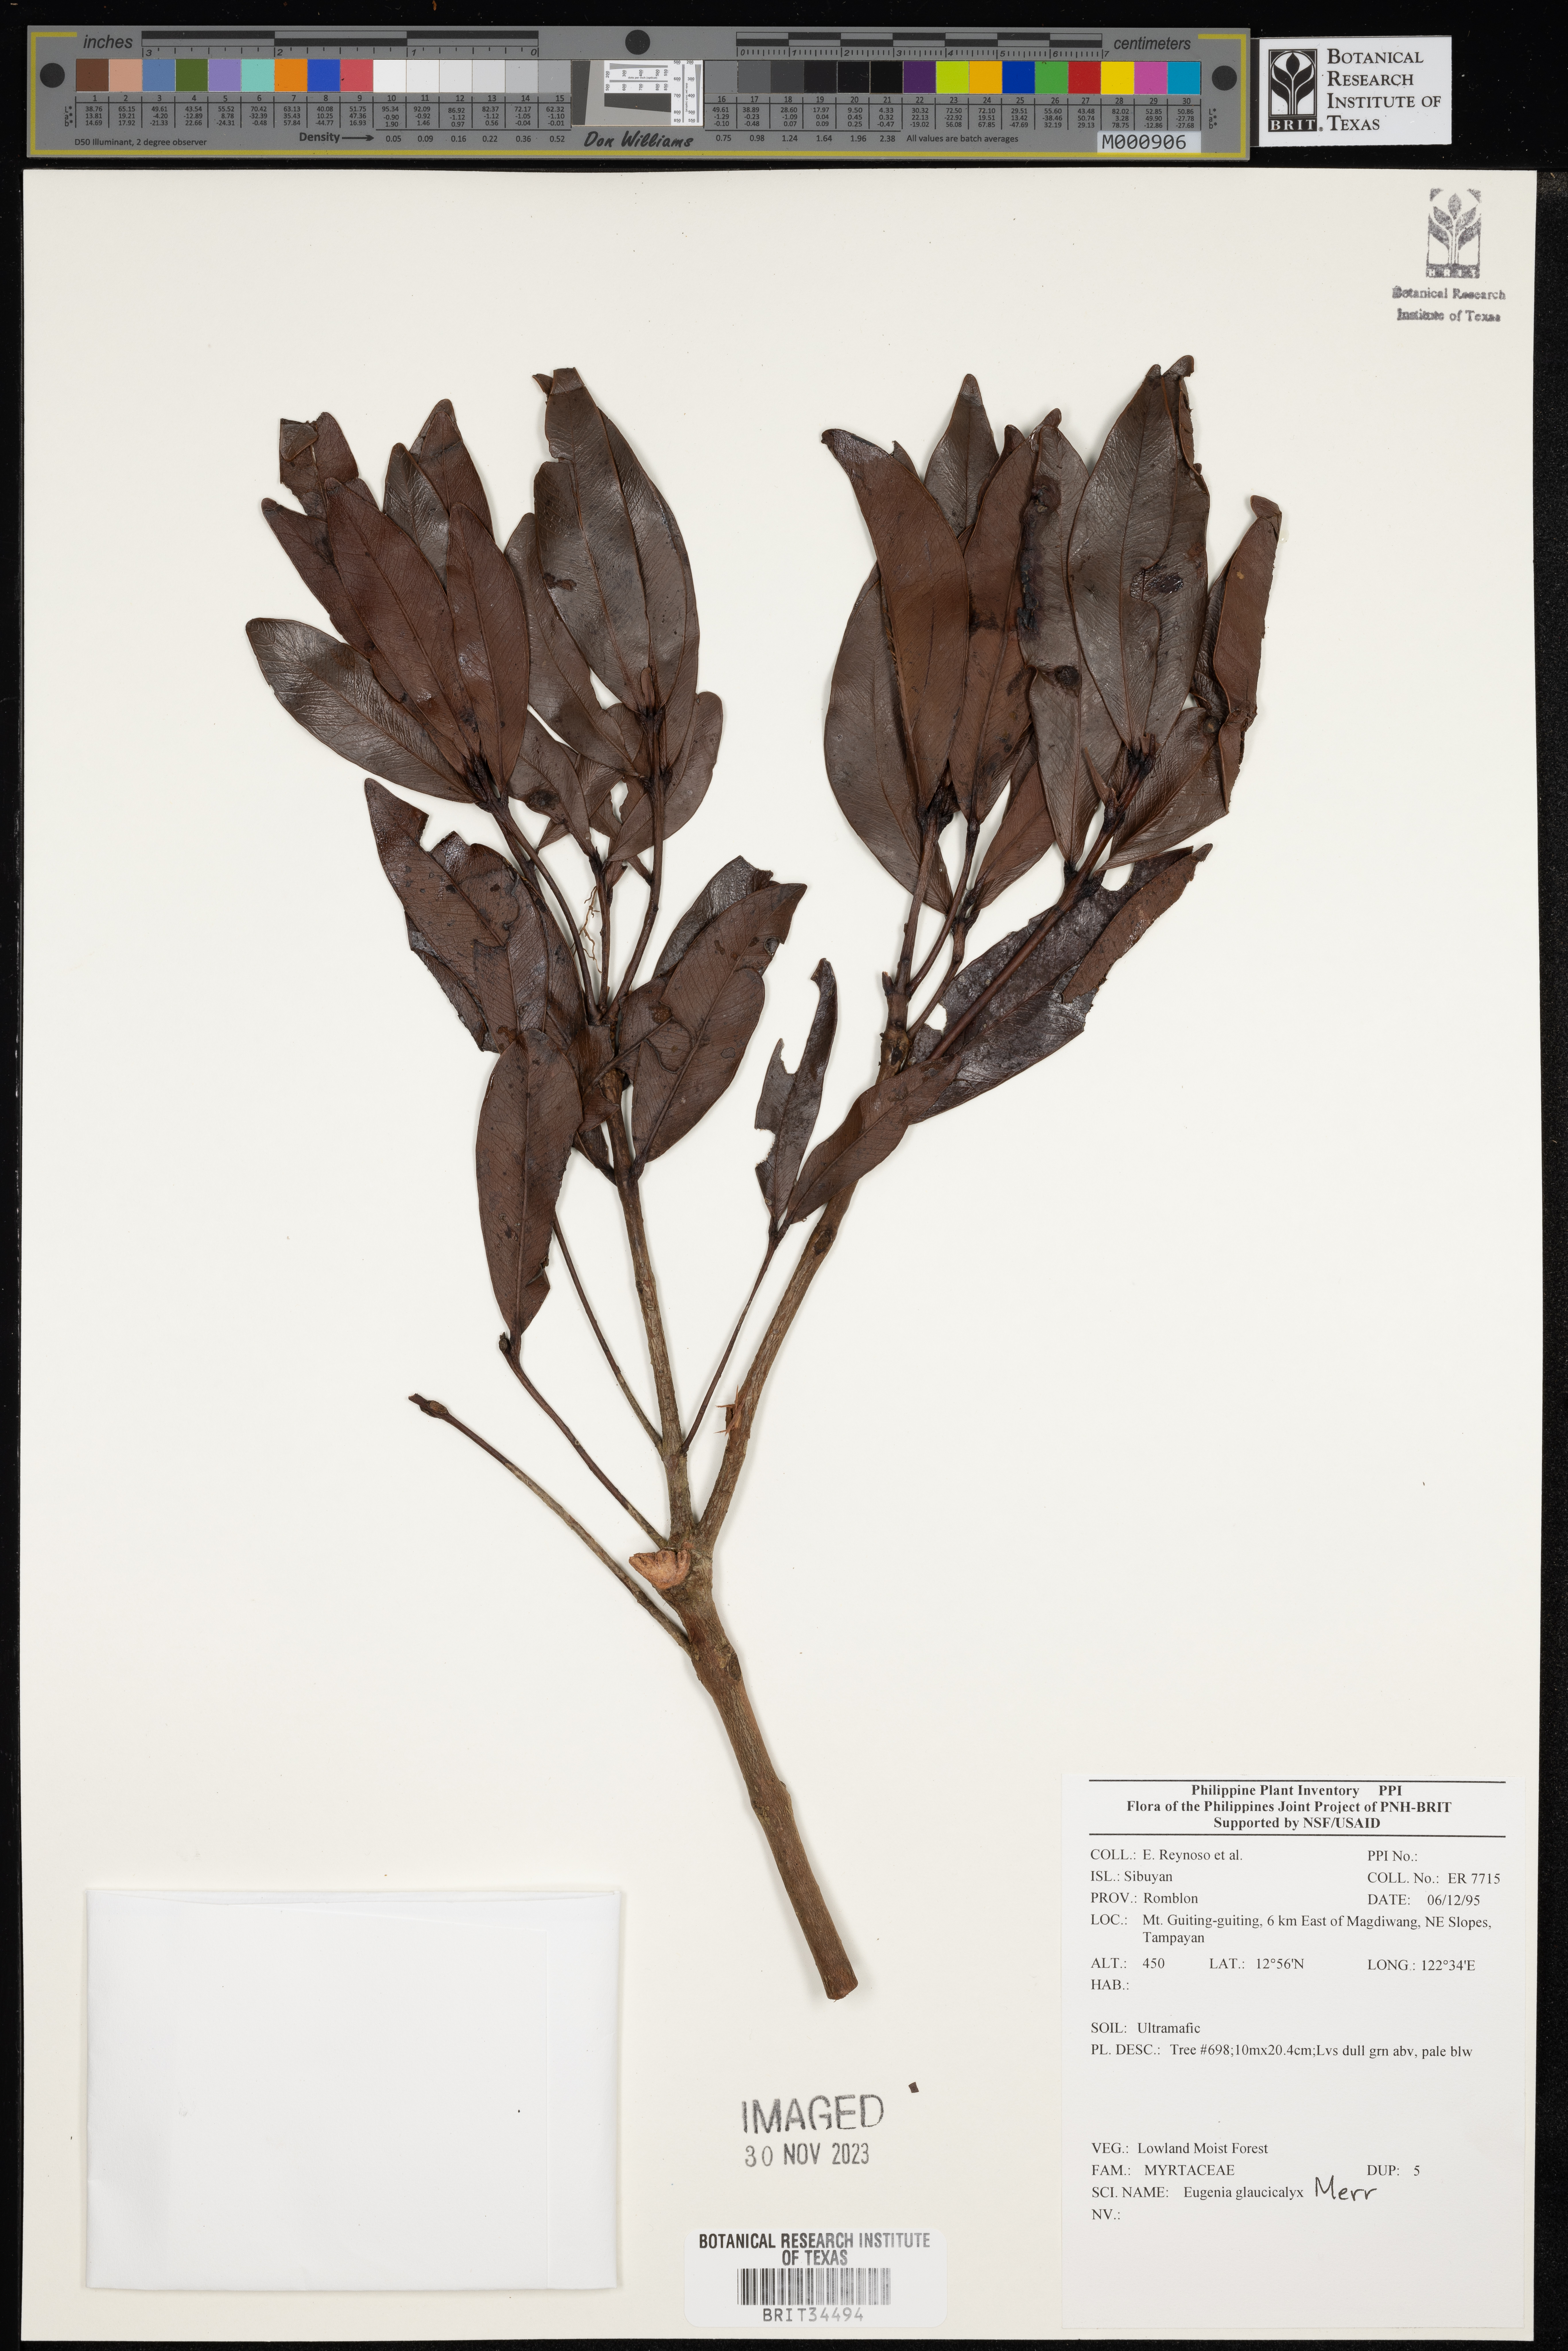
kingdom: Plantae
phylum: Tracheophyta
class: Magnoliopsida
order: Myrtales
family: Myrtaceae
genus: Eugenia
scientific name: Eugenia
